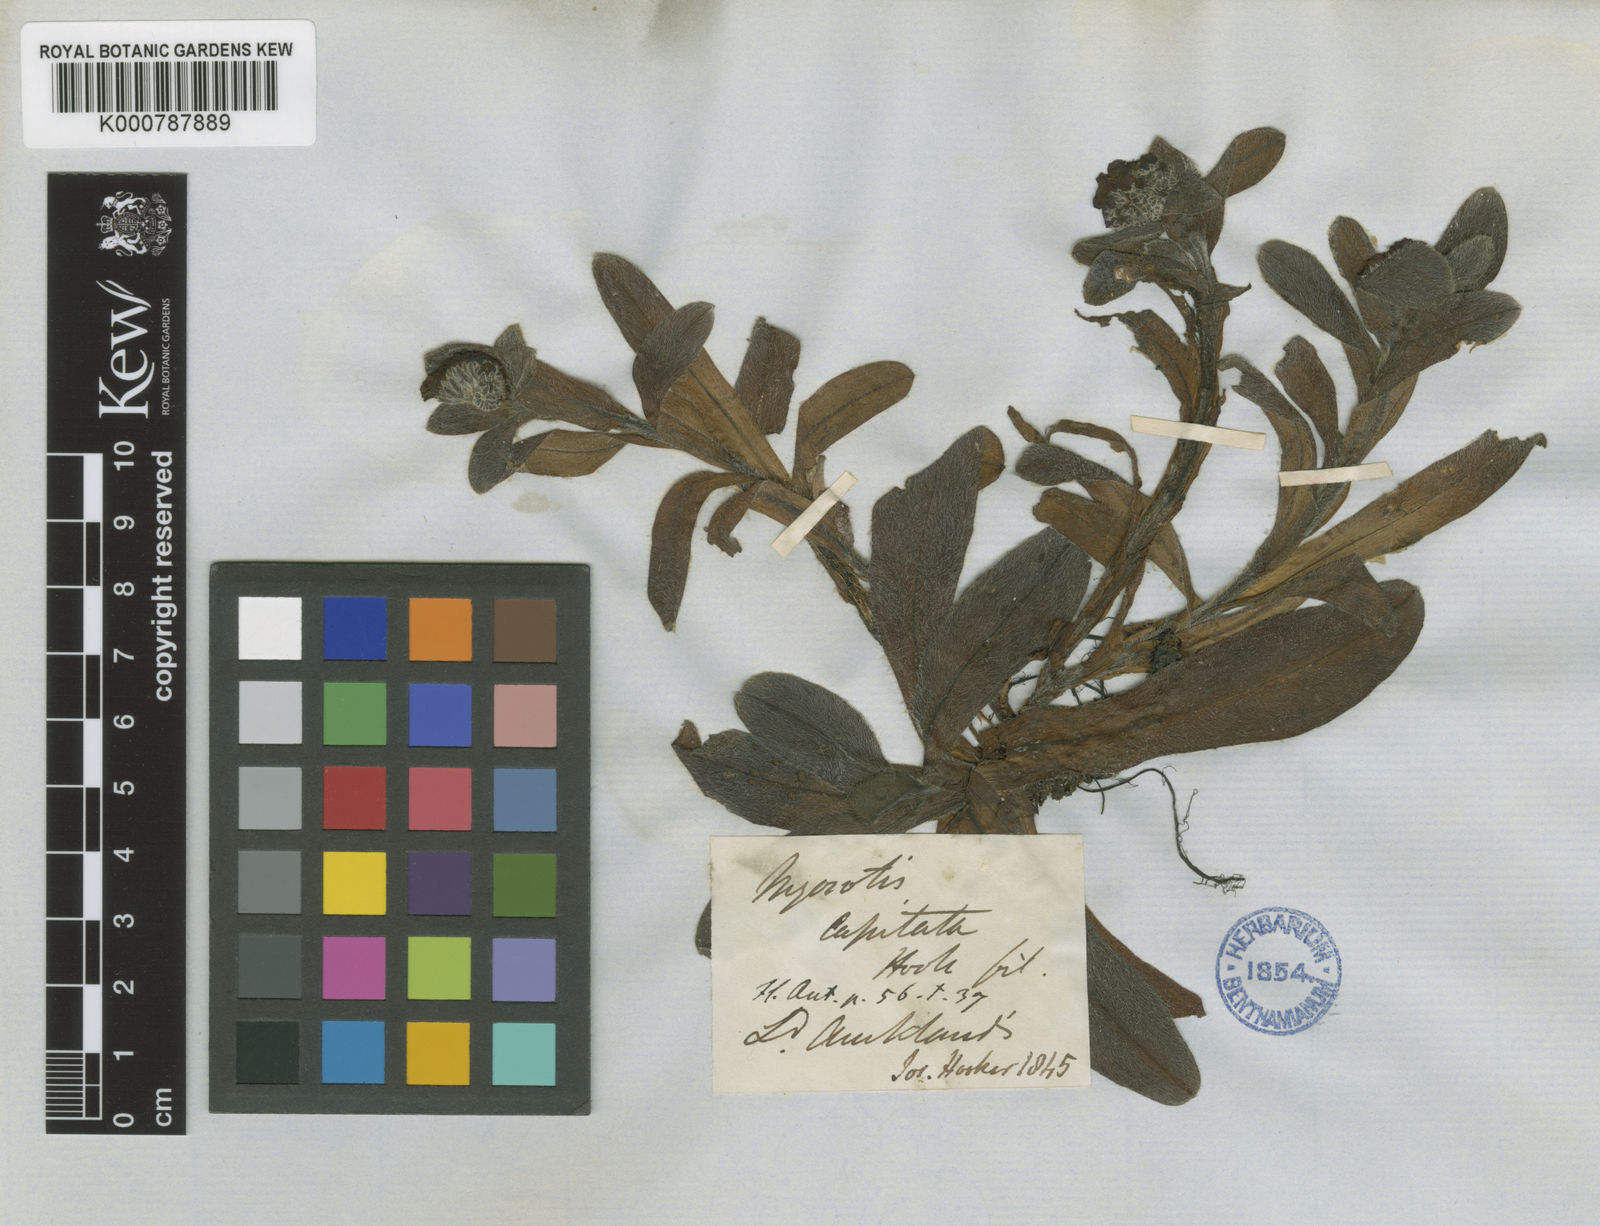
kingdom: Plantae
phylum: Tracheophyta
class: Magnoliopsida
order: Boraginales
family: Boraginaceae
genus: Myosotis
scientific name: Myosotis capitata
